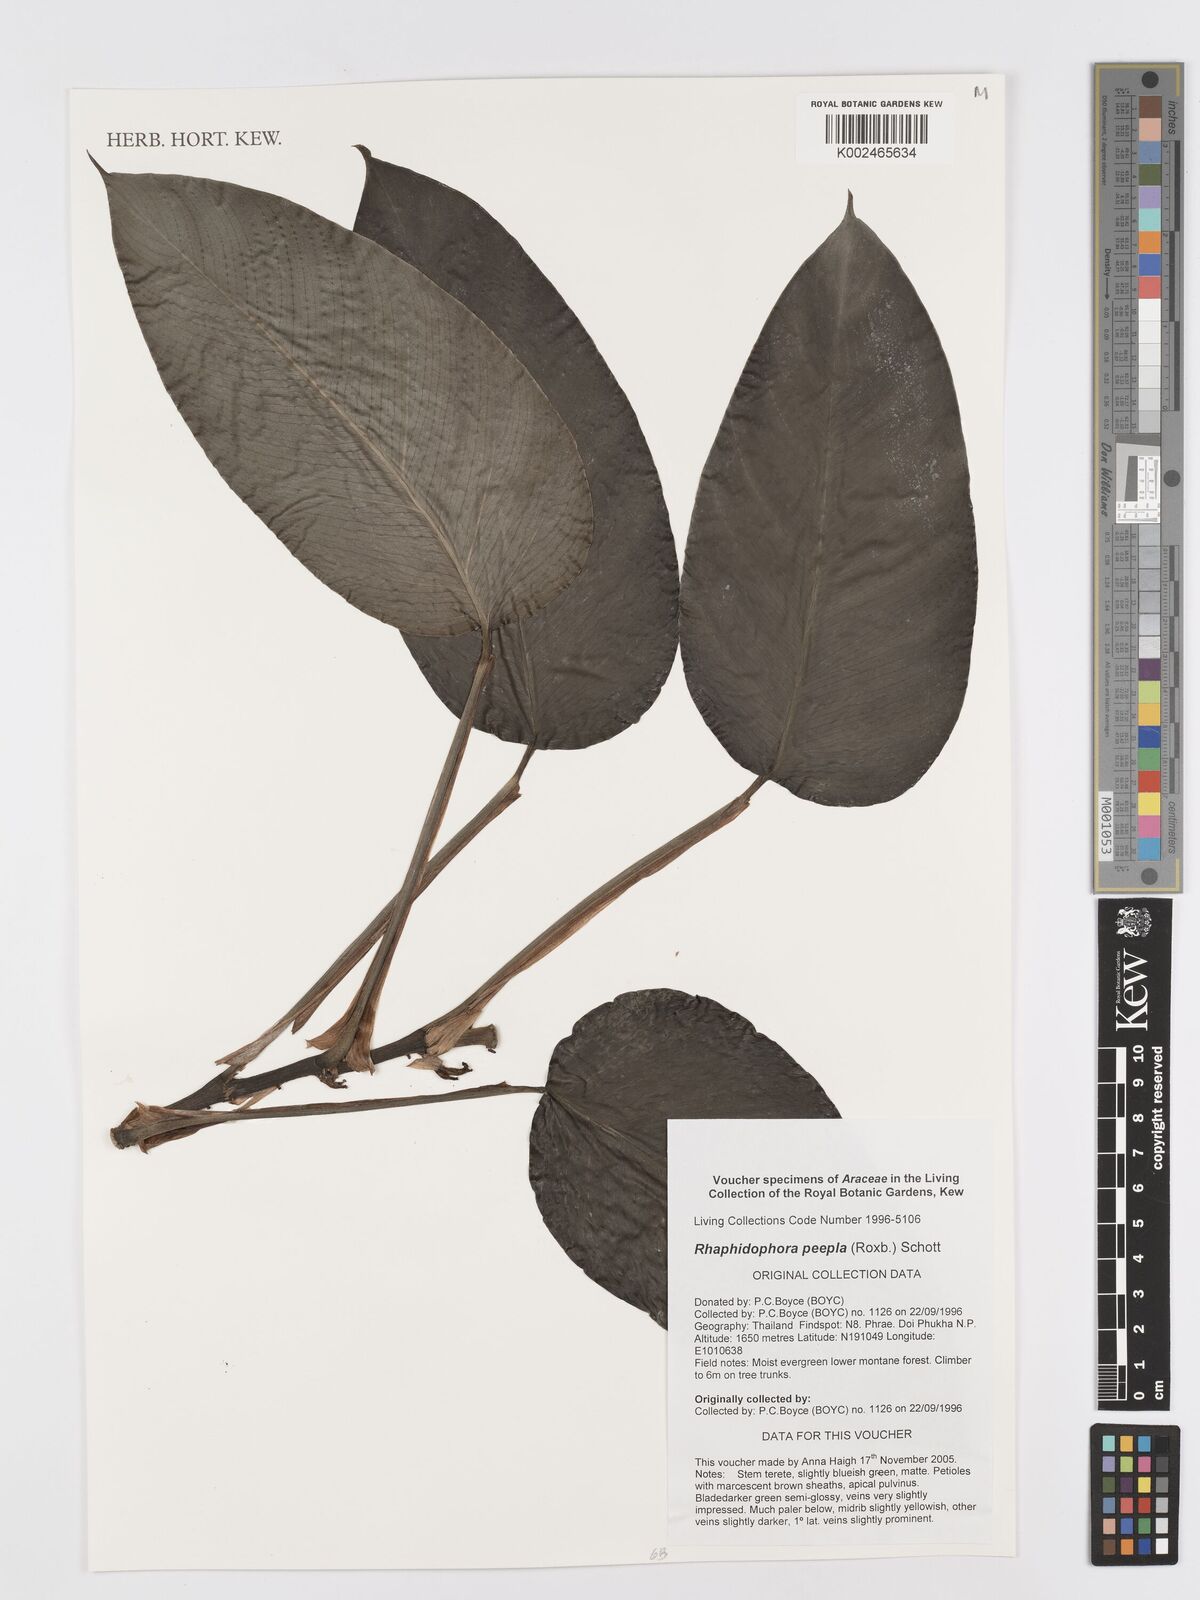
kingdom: Plantae
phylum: Tracheophyta
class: Liliopsida
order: Alismatales
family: Araceae
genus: Rhaphidophora
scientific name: Rhaphidophora peepla
